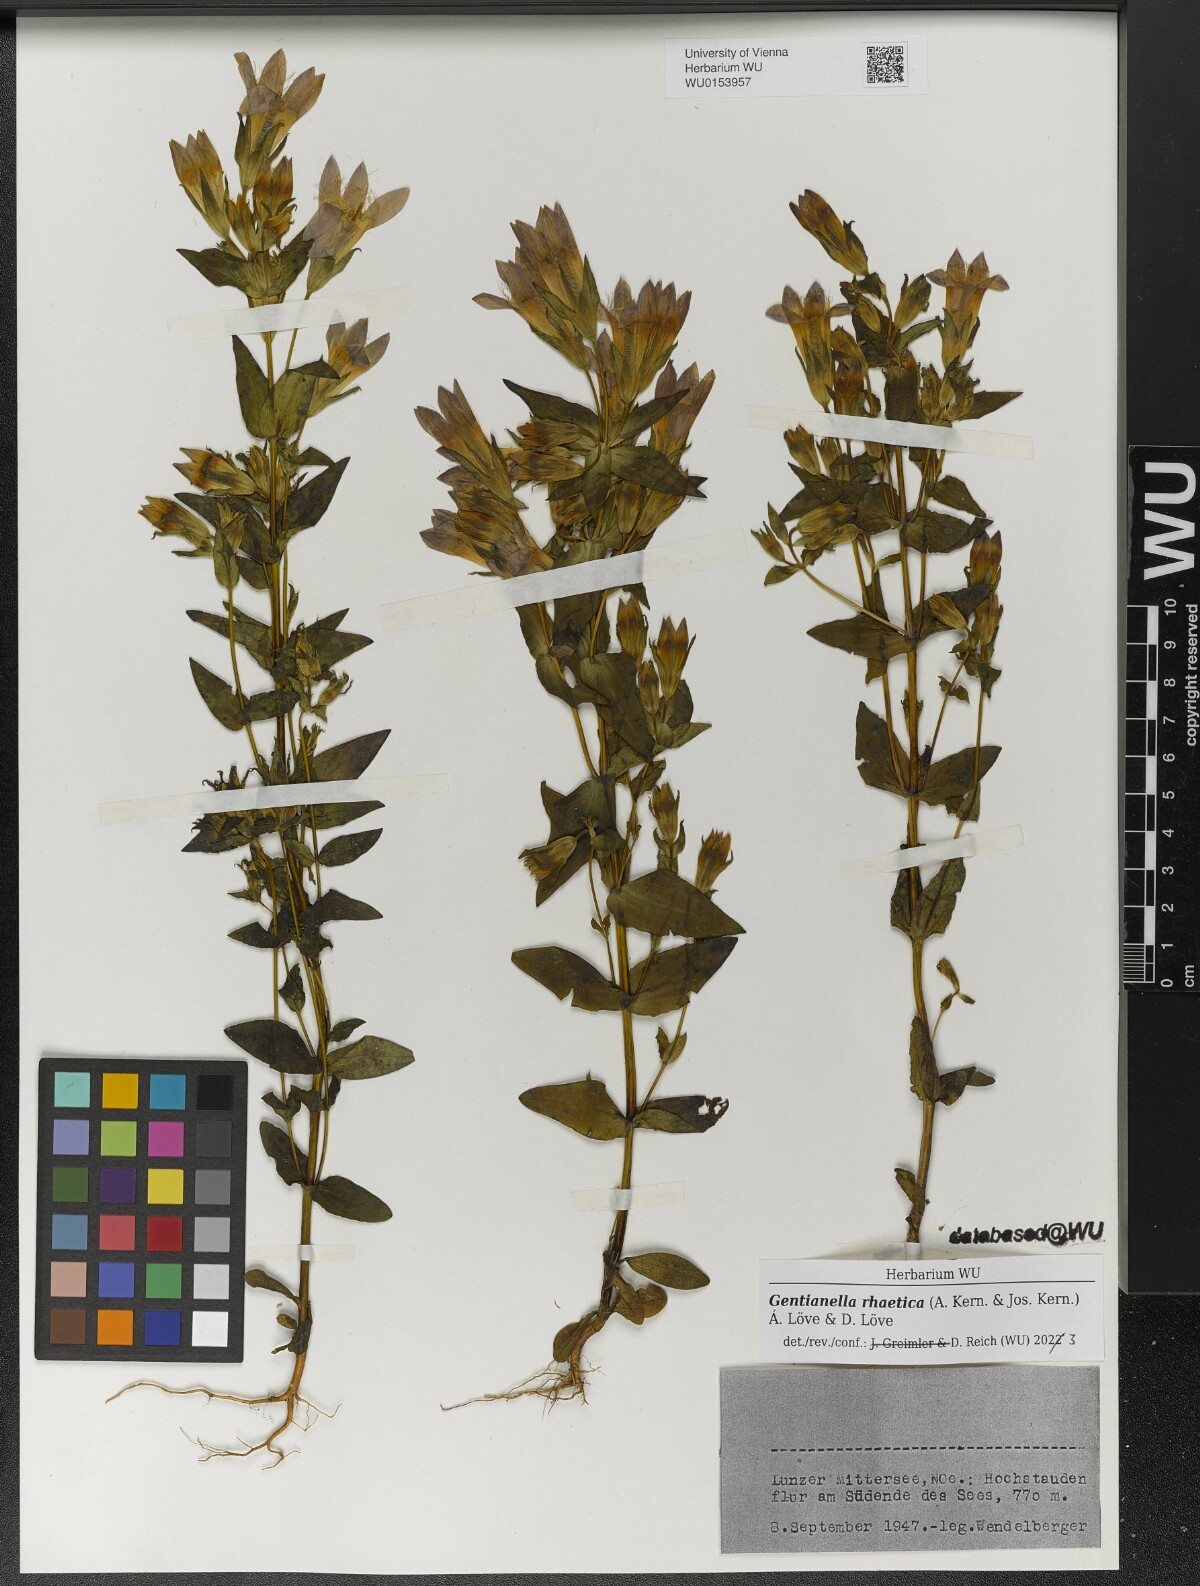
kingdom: Plantae
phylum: Tracheophyta
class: Magnoliopsida
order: Gentianales
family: Gentianaceae
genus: Gentianella
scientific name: Gentianella rhaetica
